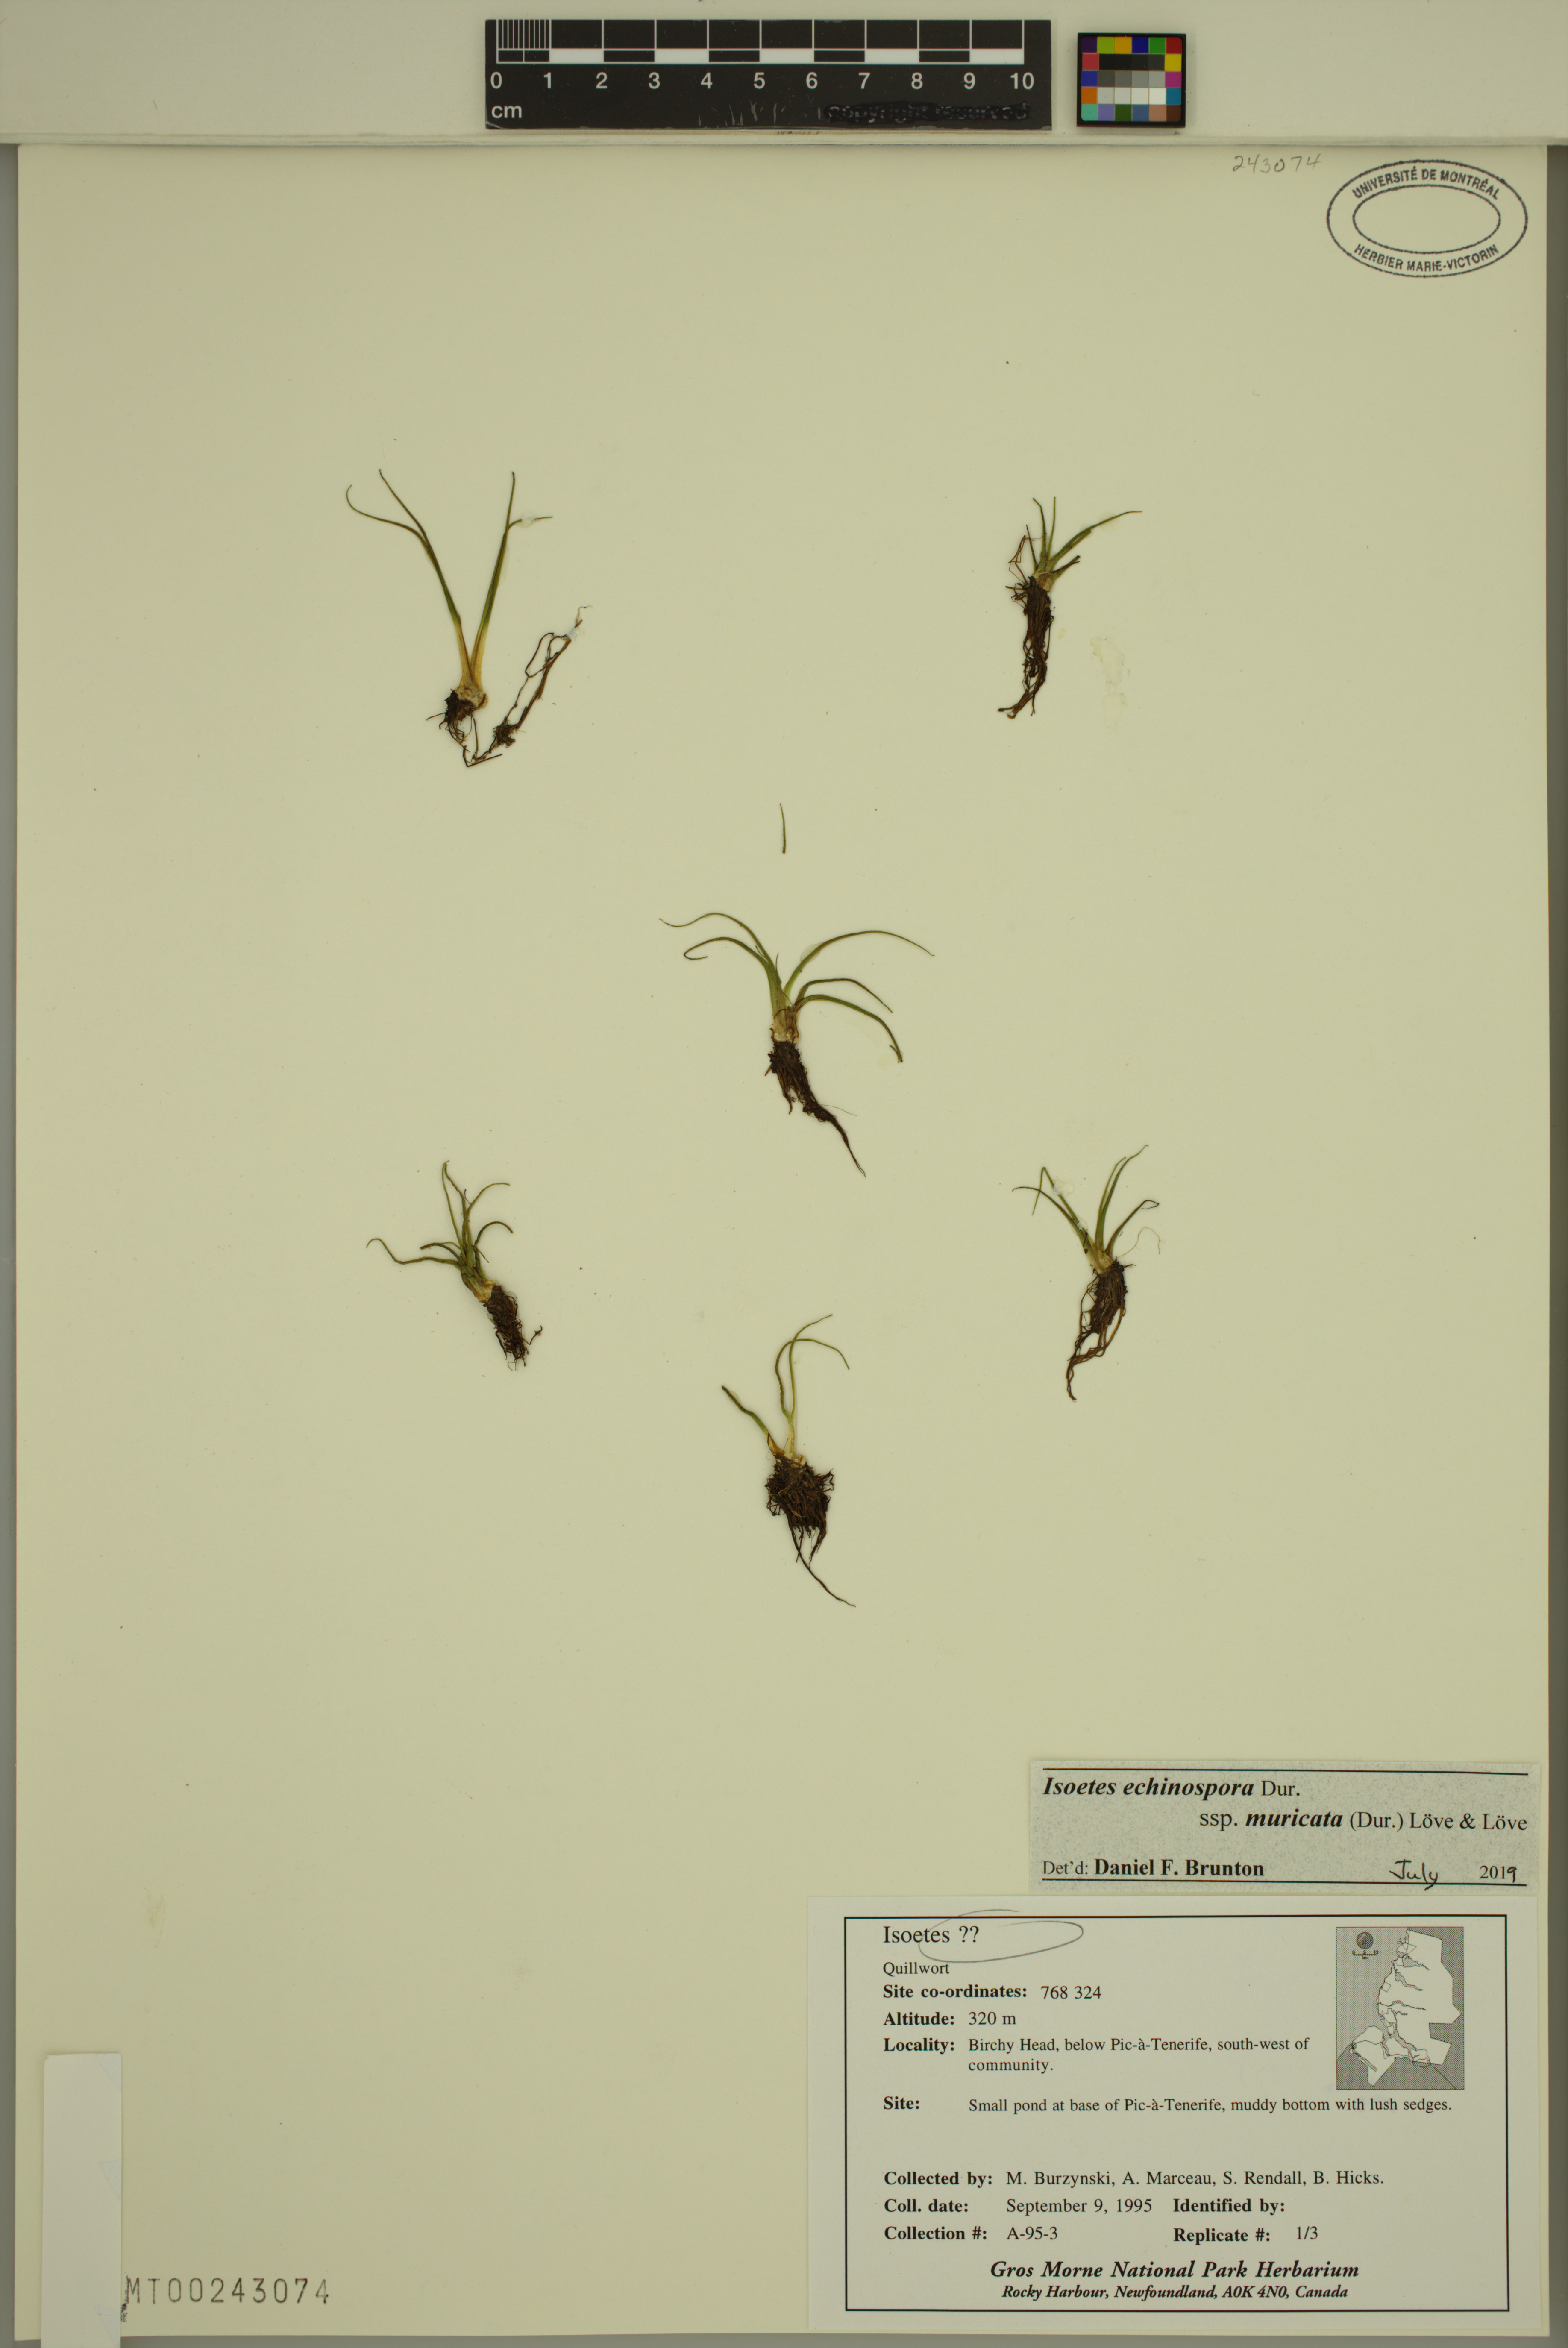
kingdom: Plantae
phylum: Tracheophyta
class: Lycopodiopsida
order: Isoetales
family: Isoetaceae
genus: Isoetes
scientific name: Isoetes echinospora
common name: Spring quillwort
